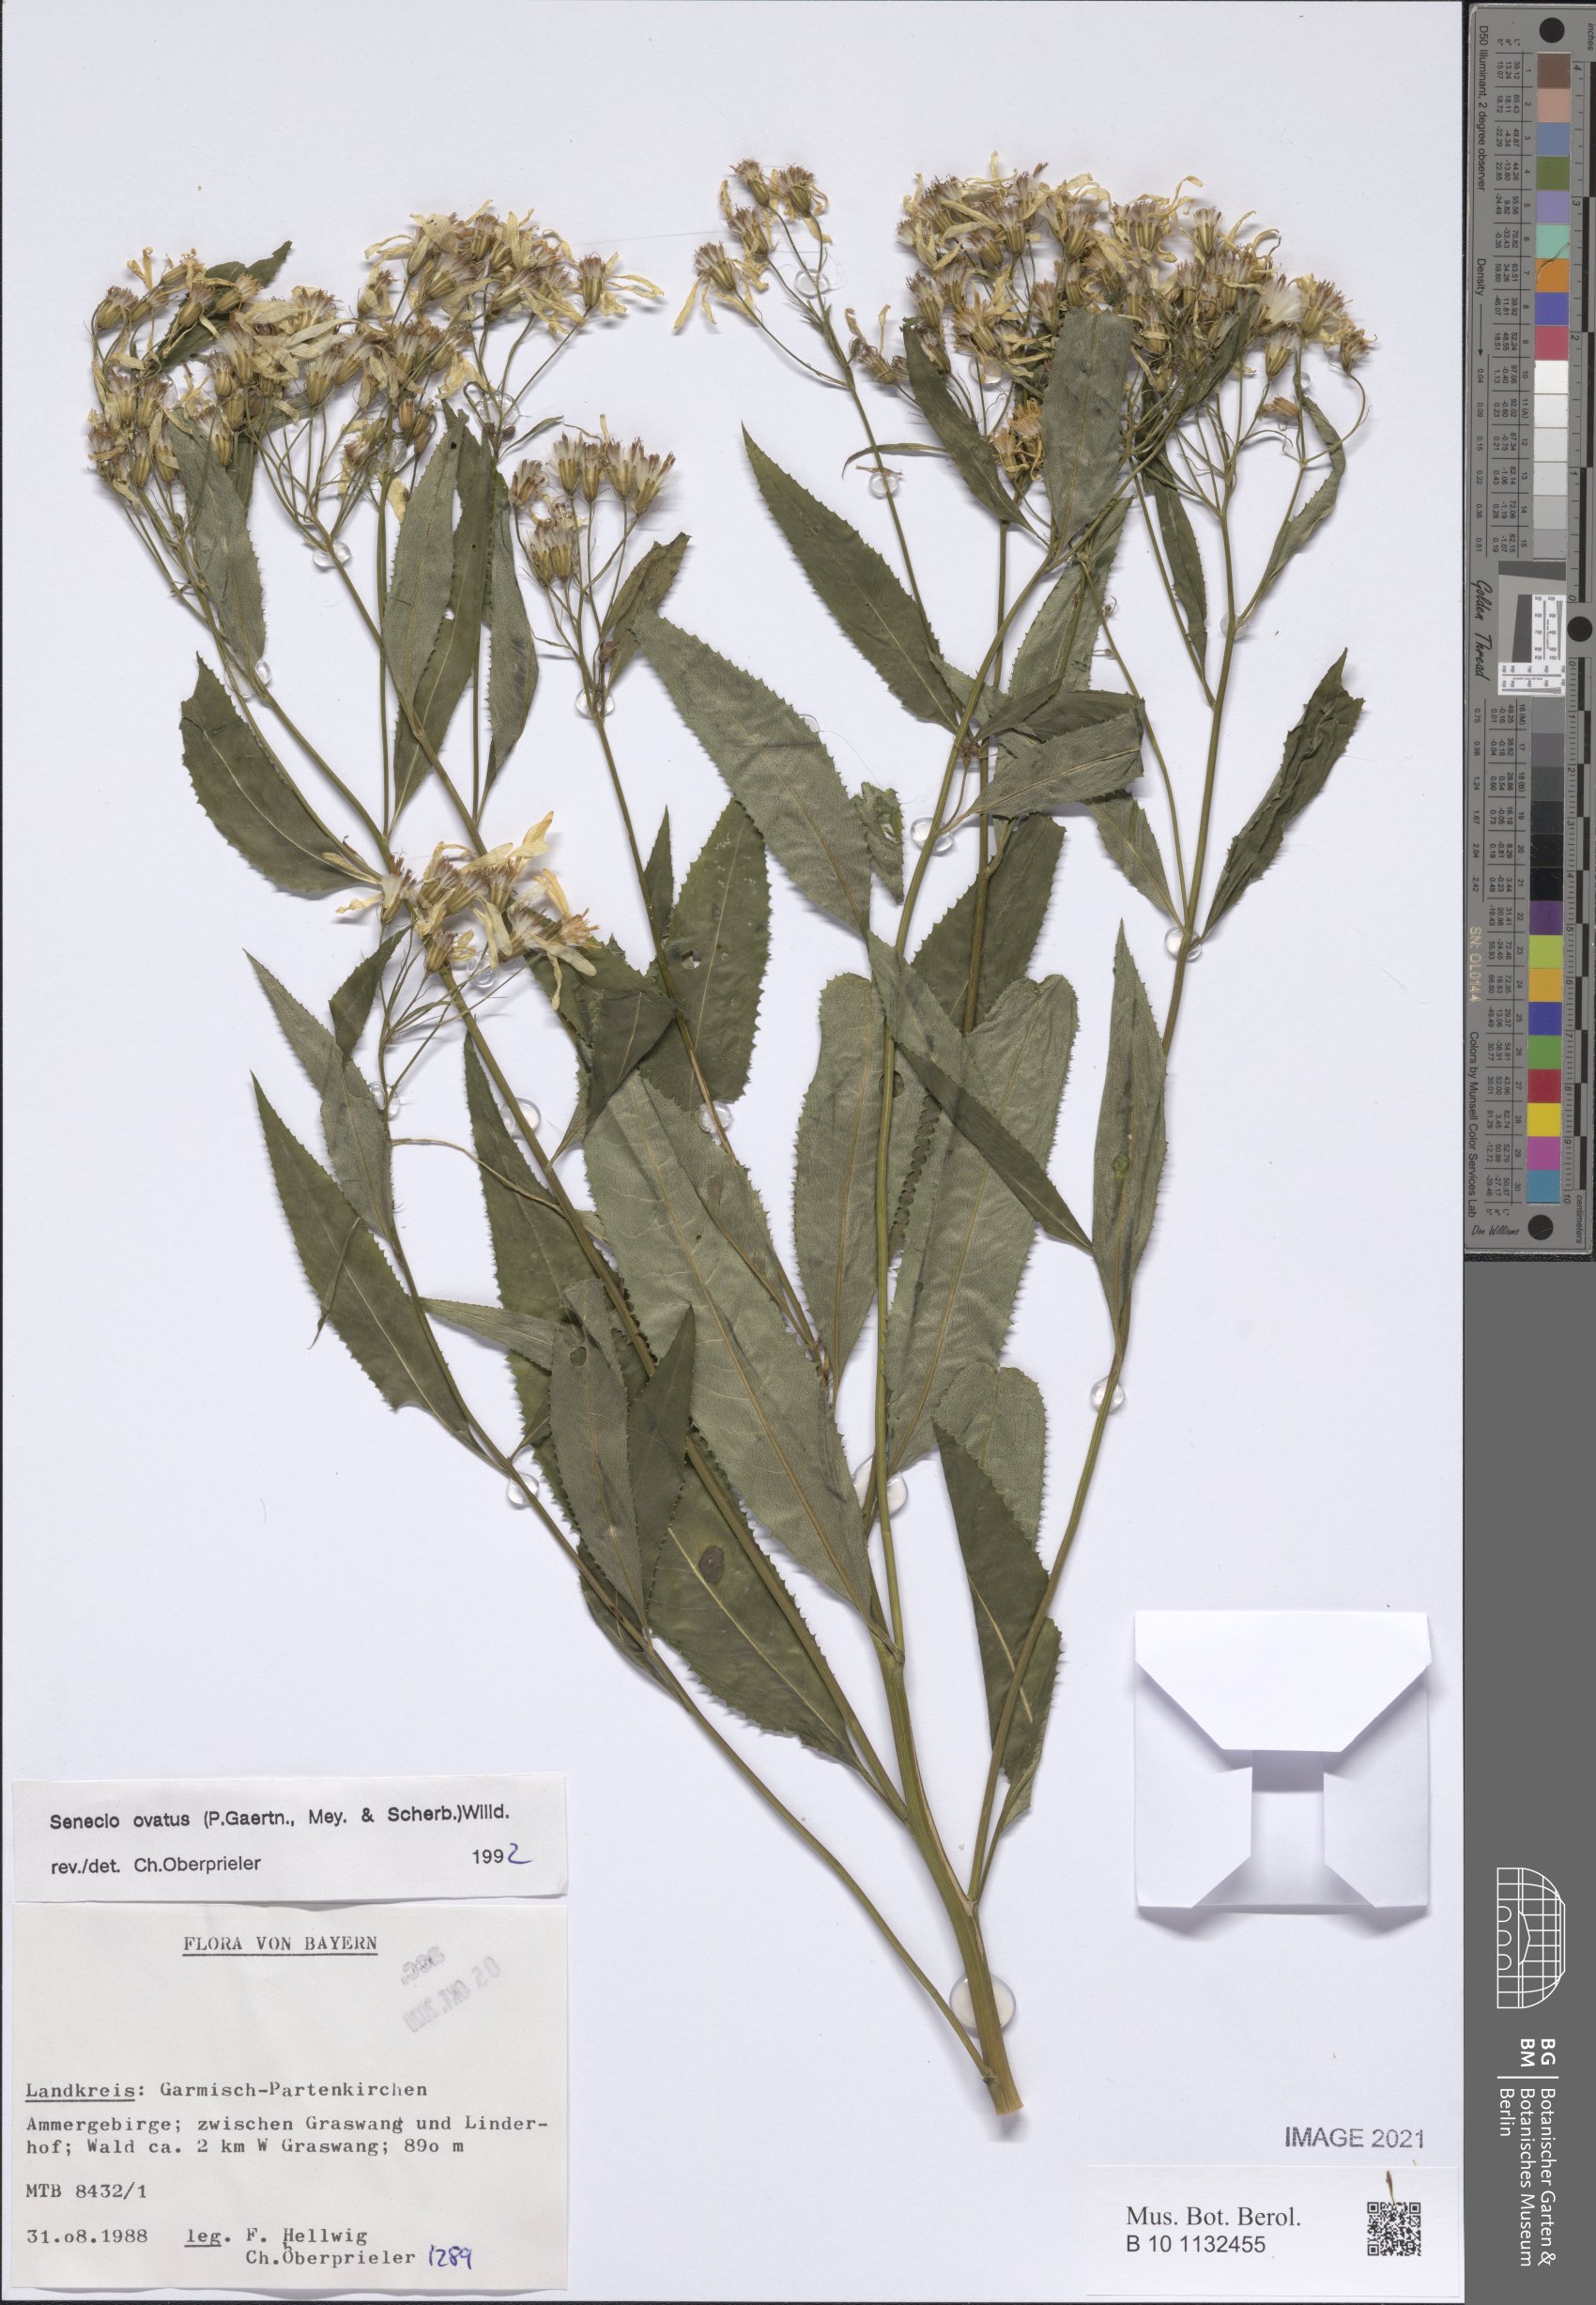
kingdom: Plantae
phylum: Tracheophyta
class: Magnoliopsida
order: Asterales
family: Asteraceae
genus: Senecio
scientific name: Senecio ovatus
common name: Wood ragwort
